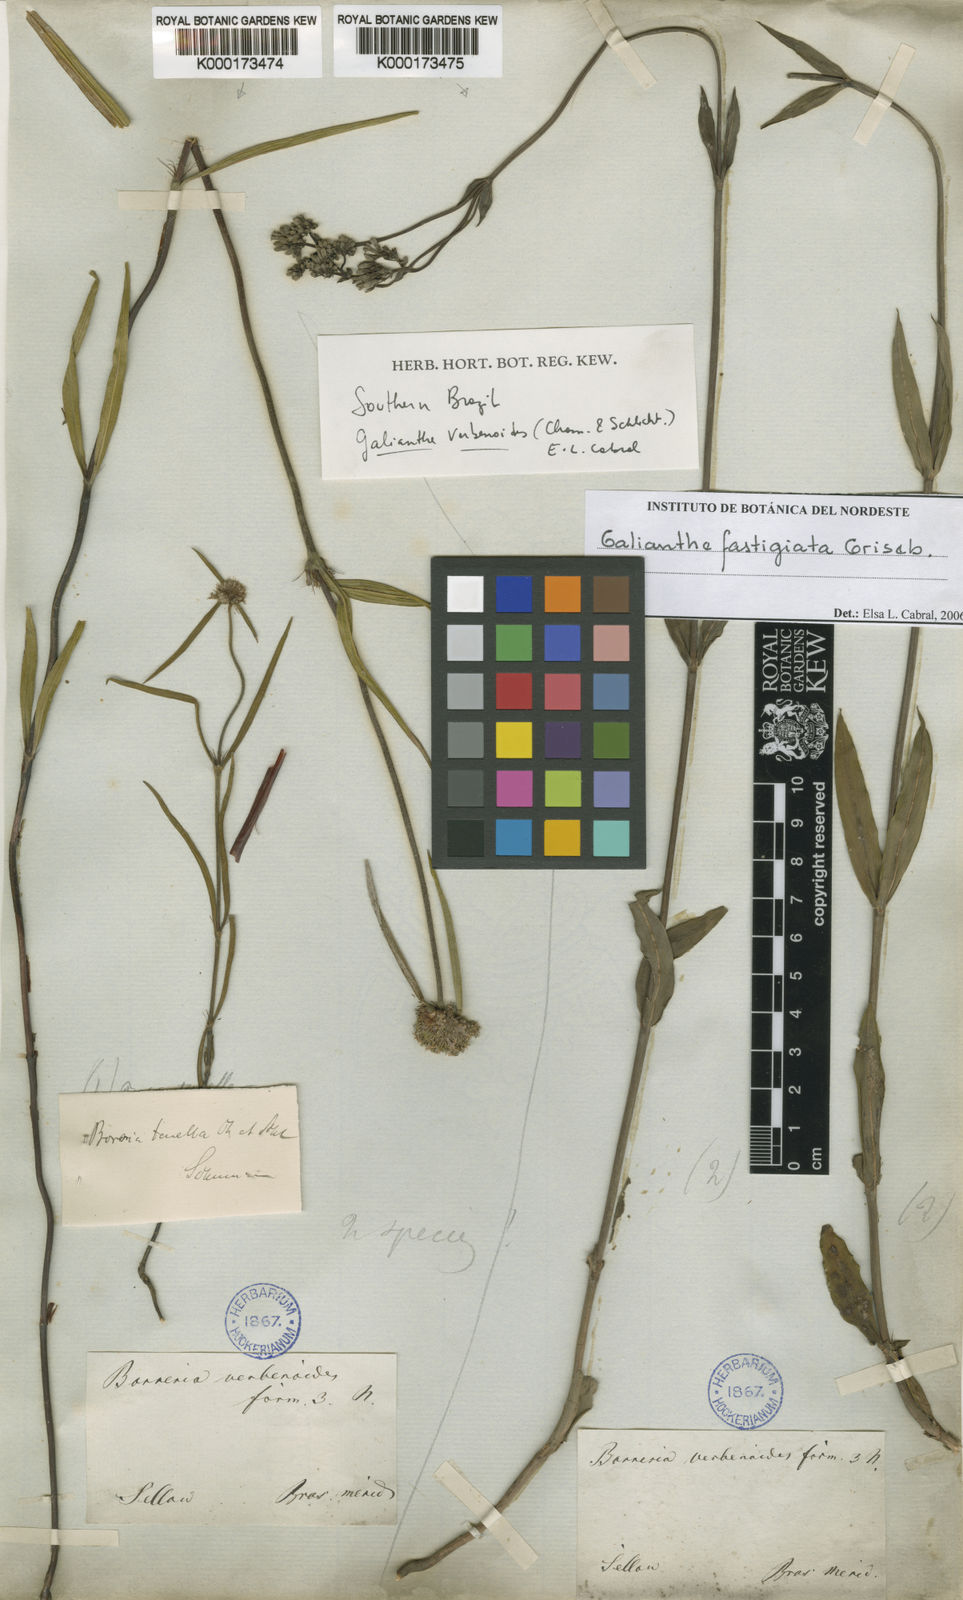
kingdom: Plantae
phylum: Tracheophyta
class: Magnoliopsida
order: Gentianales
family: Rubiaceae
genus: Galianthe
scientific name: Galianthe fastigiata
